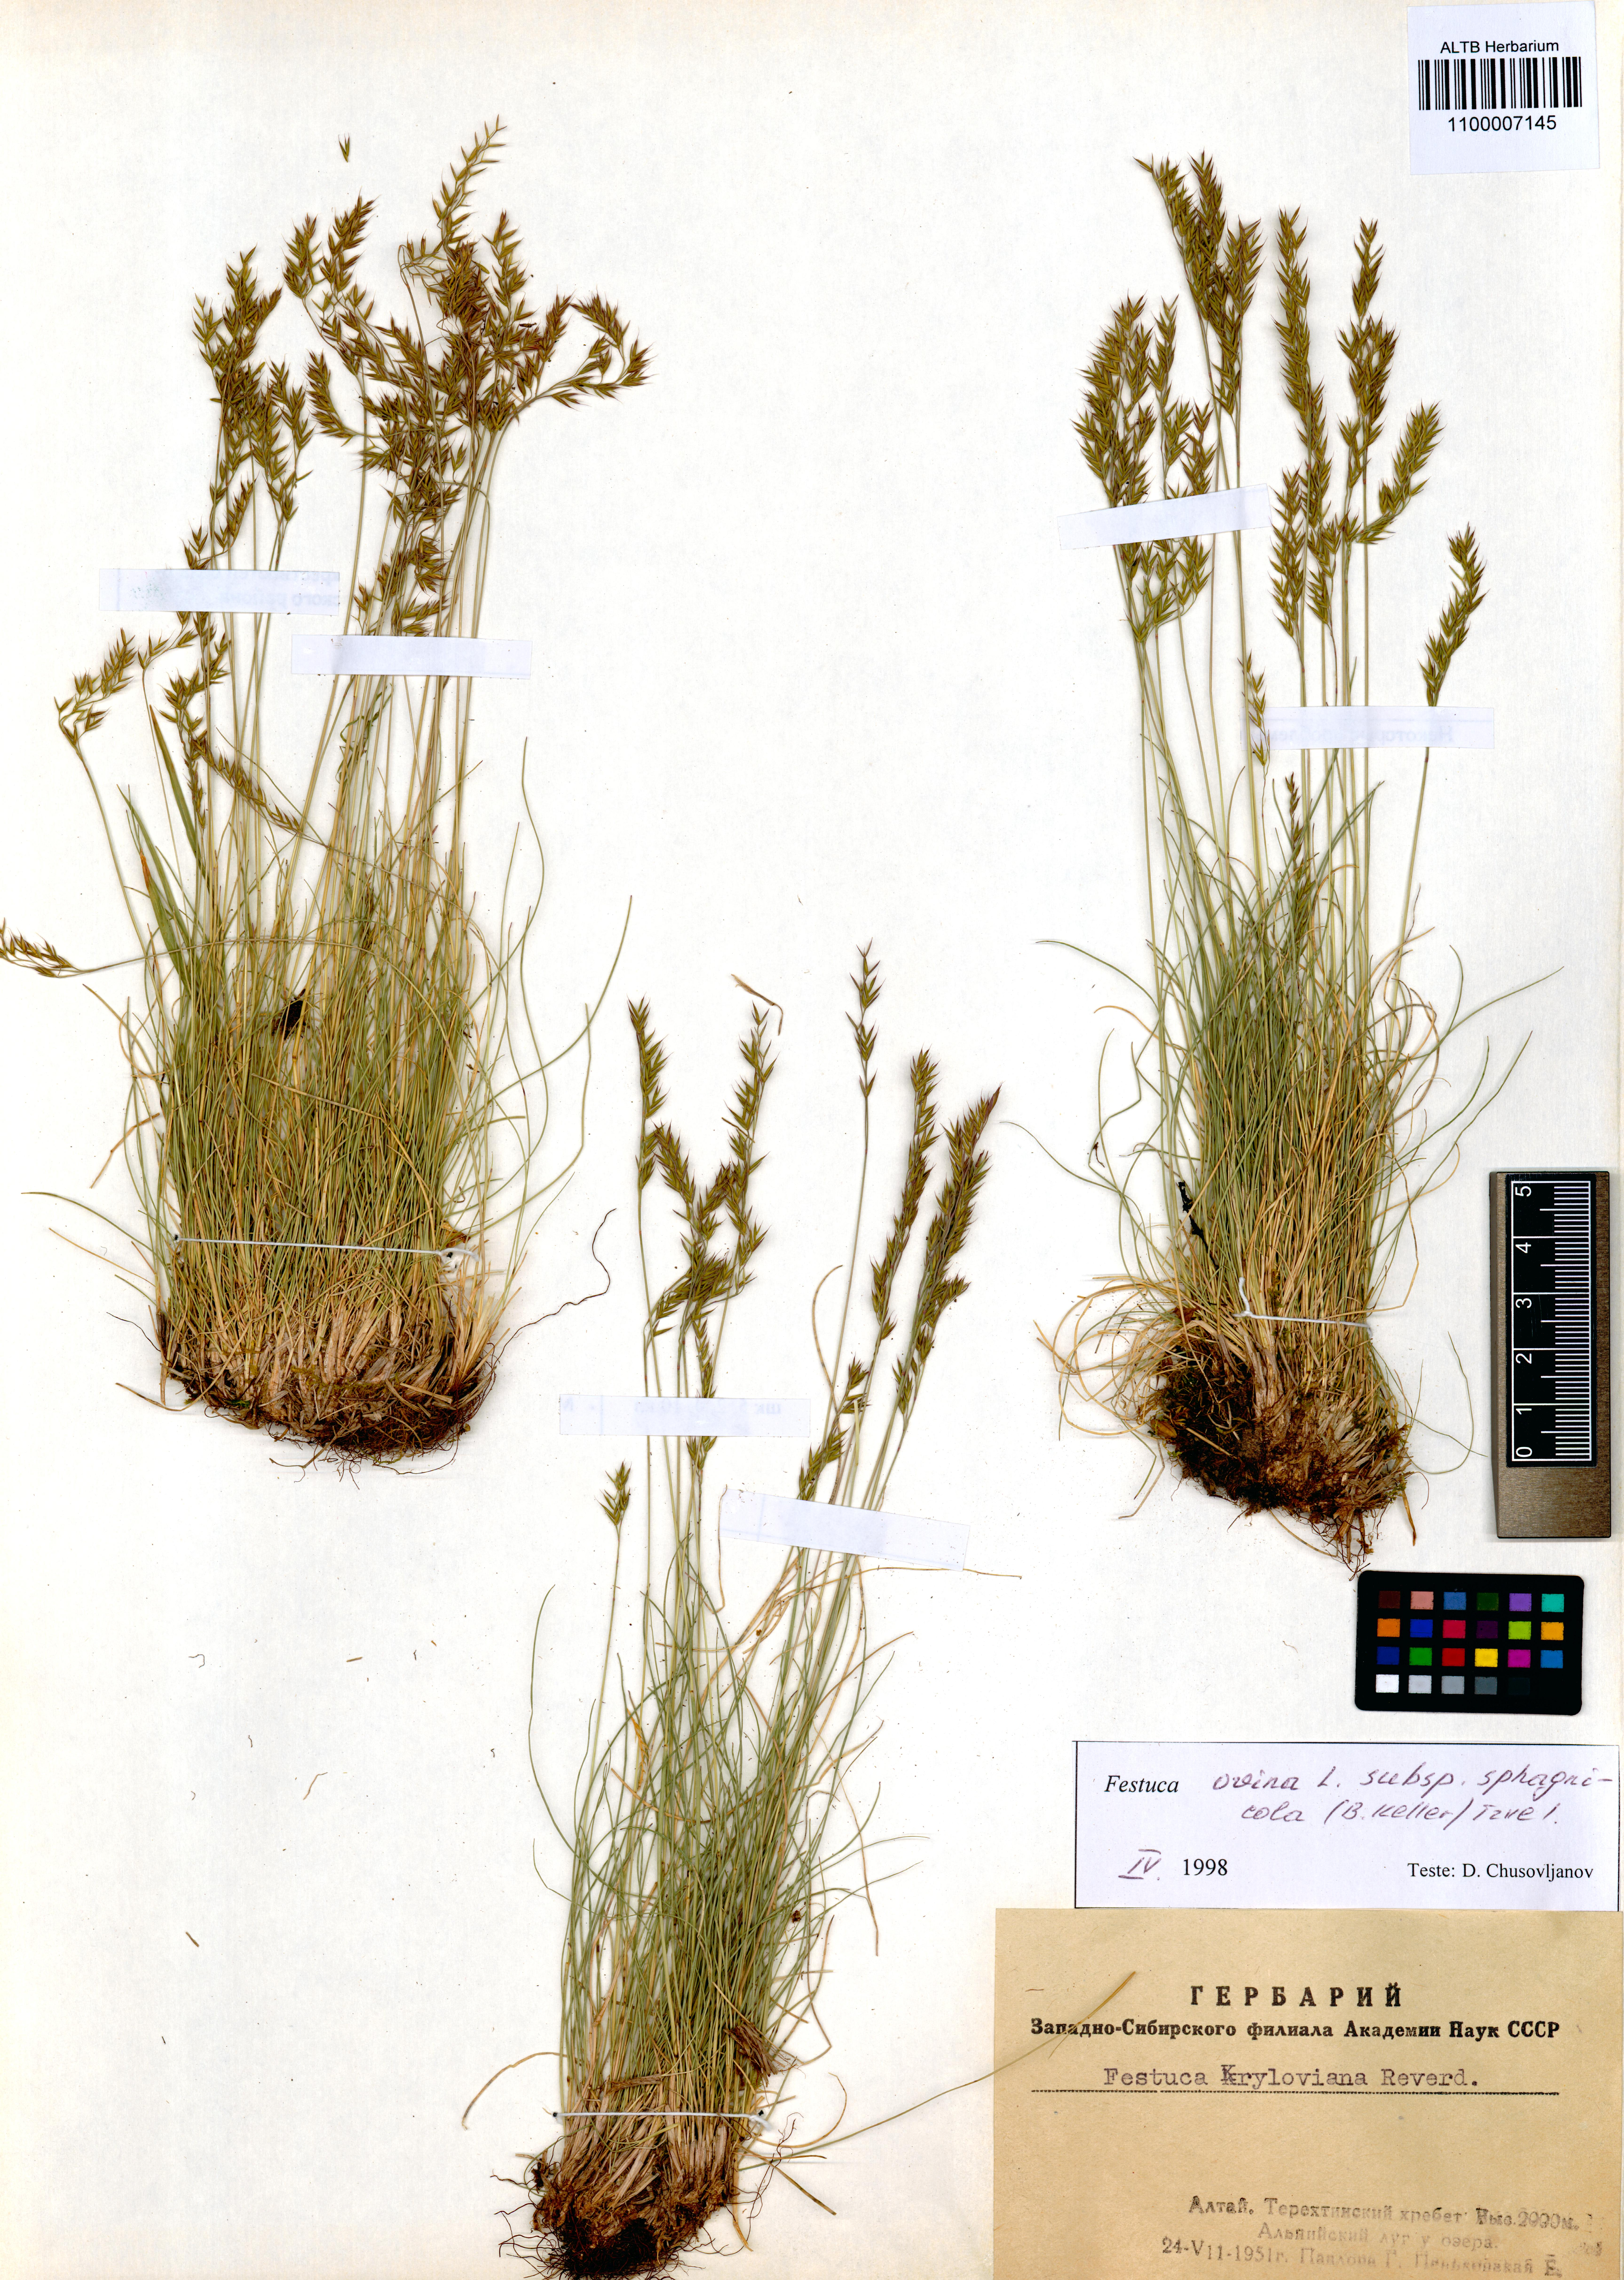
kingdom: Plantae
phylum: Tracheophyta
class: Liliopsida
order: Poales
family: Poaceae
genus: Festuca
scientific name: Festuca
